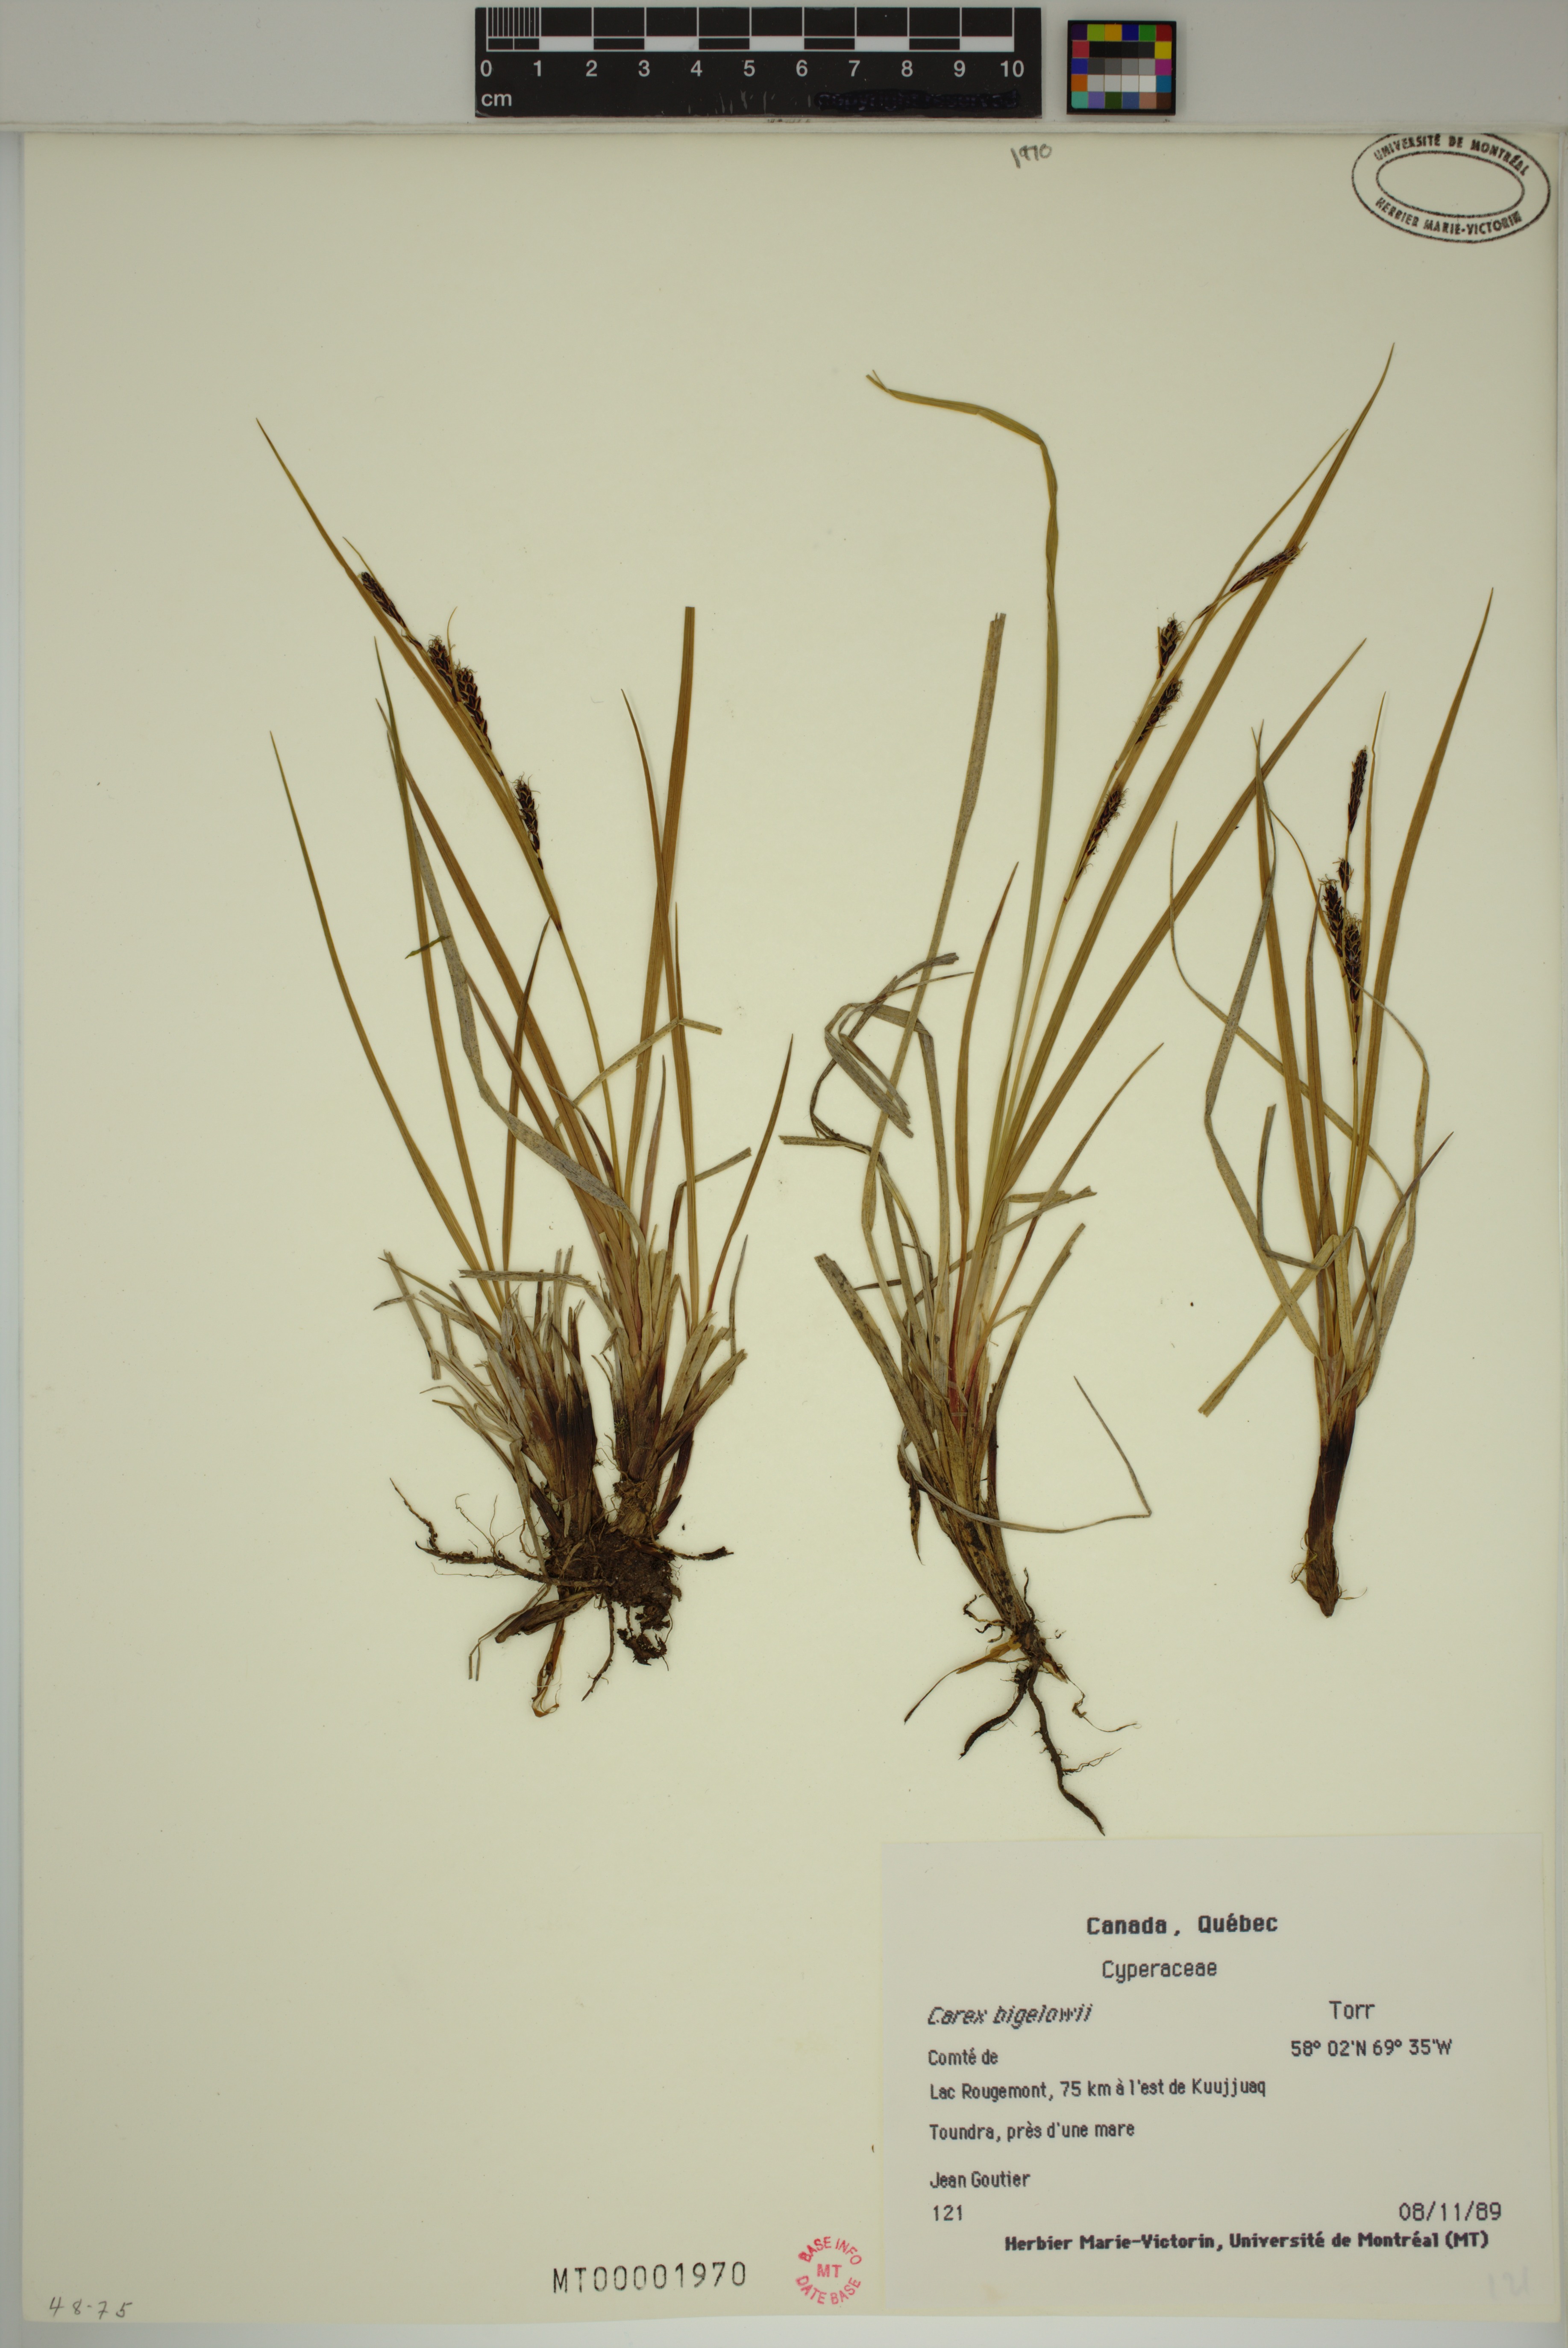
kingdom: Plantae
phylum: Tracheophyta
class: Liliopsida
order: Poales
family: Cyperaceae
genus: Carex
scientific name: Carex bigelowii
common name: Stiff sedge
